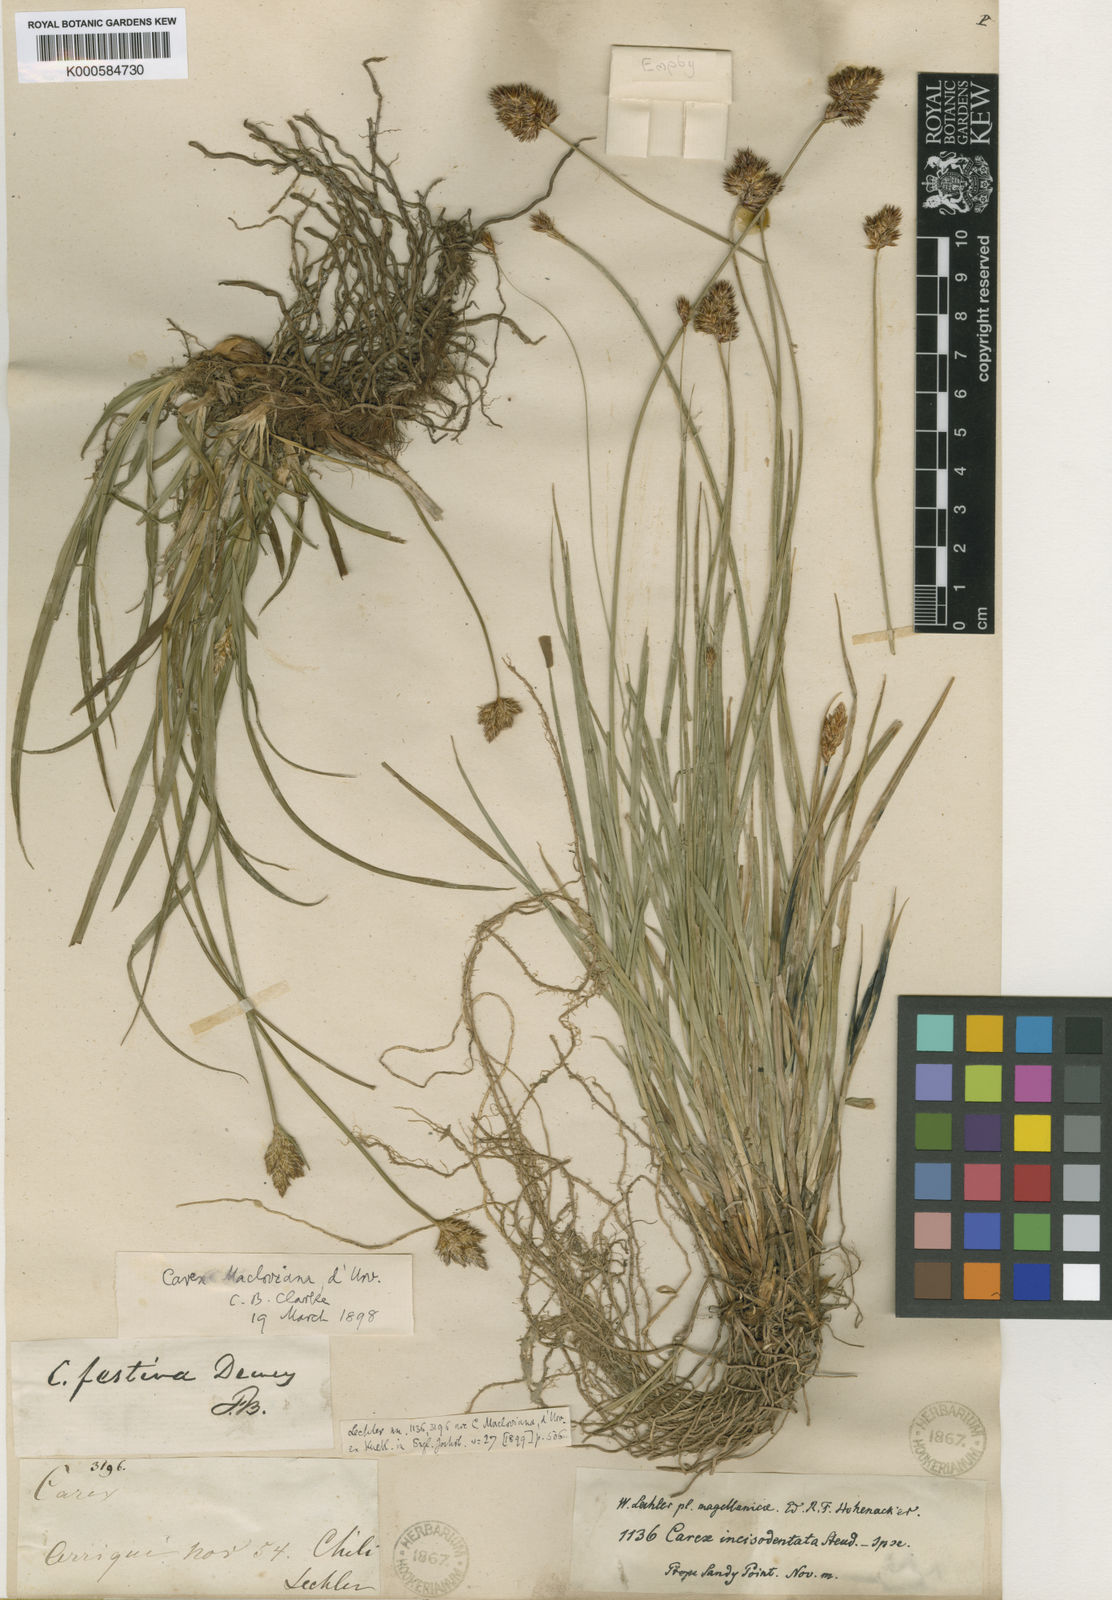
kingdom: Plantae
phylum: Tracheophyta
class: Liliopsida
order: Poales
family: Cyperaceae
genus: Carex
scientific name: Carex macloviana
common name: Falkland island sedge
